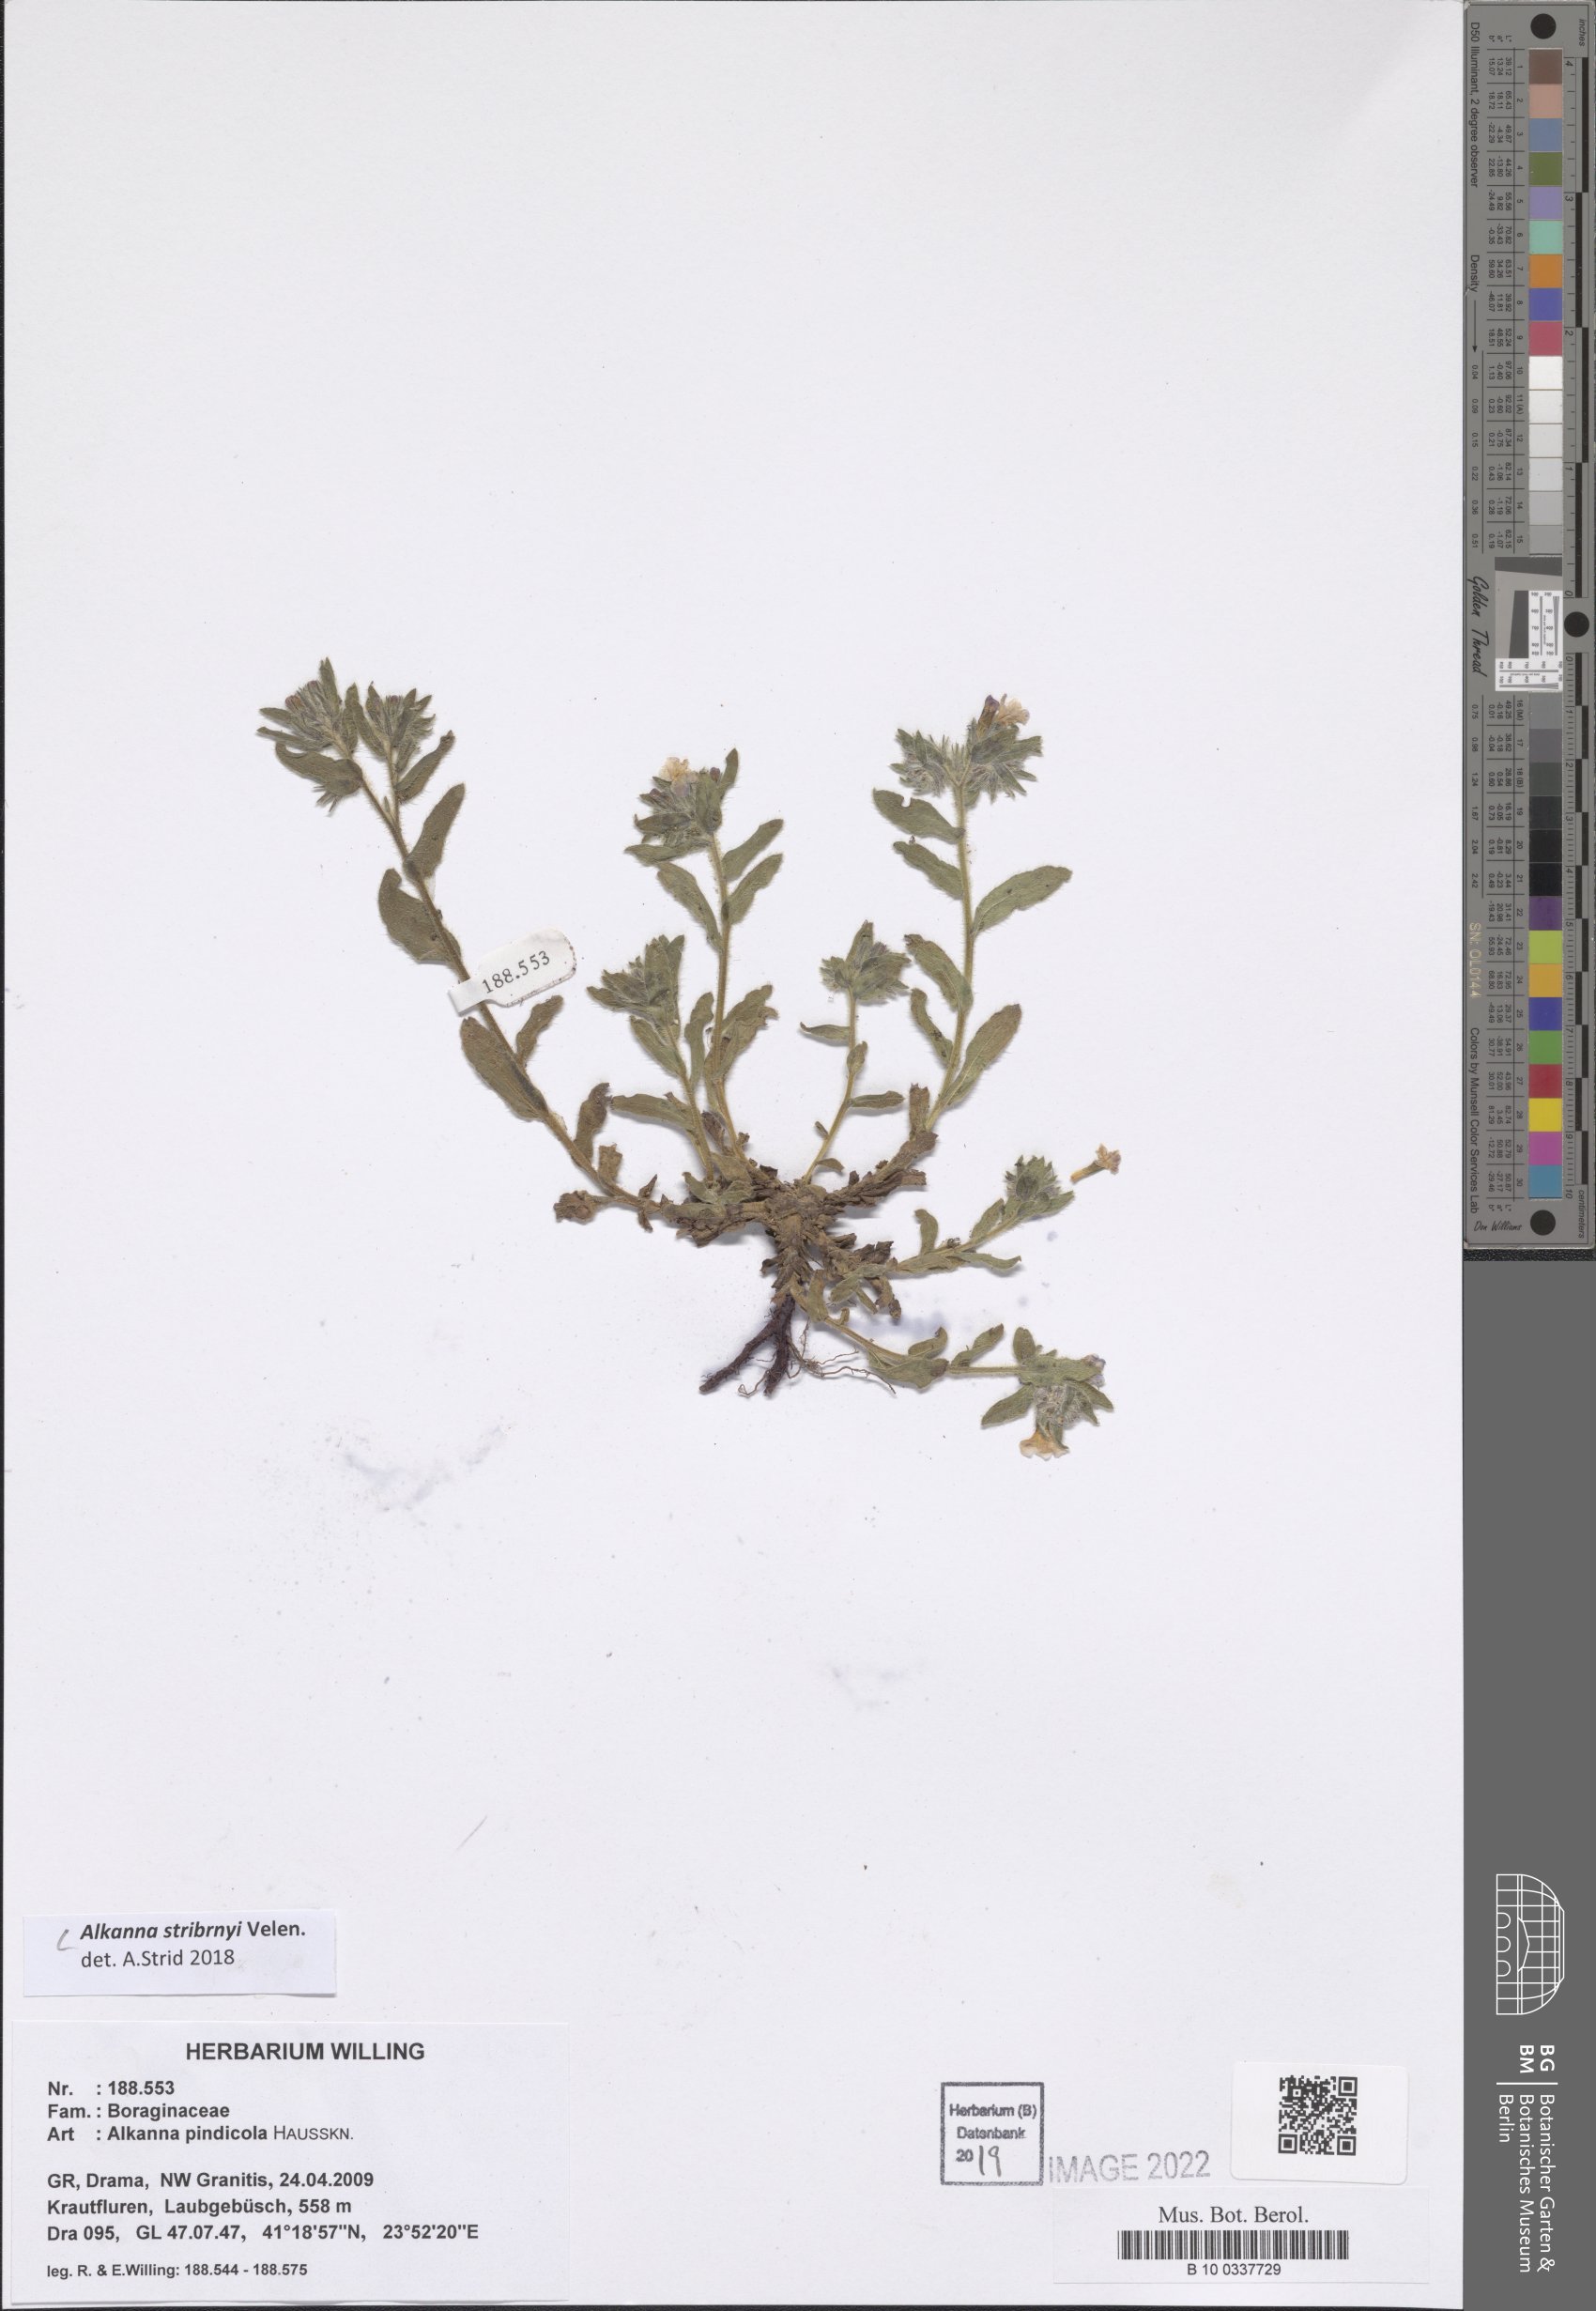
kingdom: Plantae
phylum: Tracheophyta
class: Magnoliopsida
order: Boraginales
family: Boraginaceae
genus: Alkanna
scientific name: Alkanna stribrnyi
